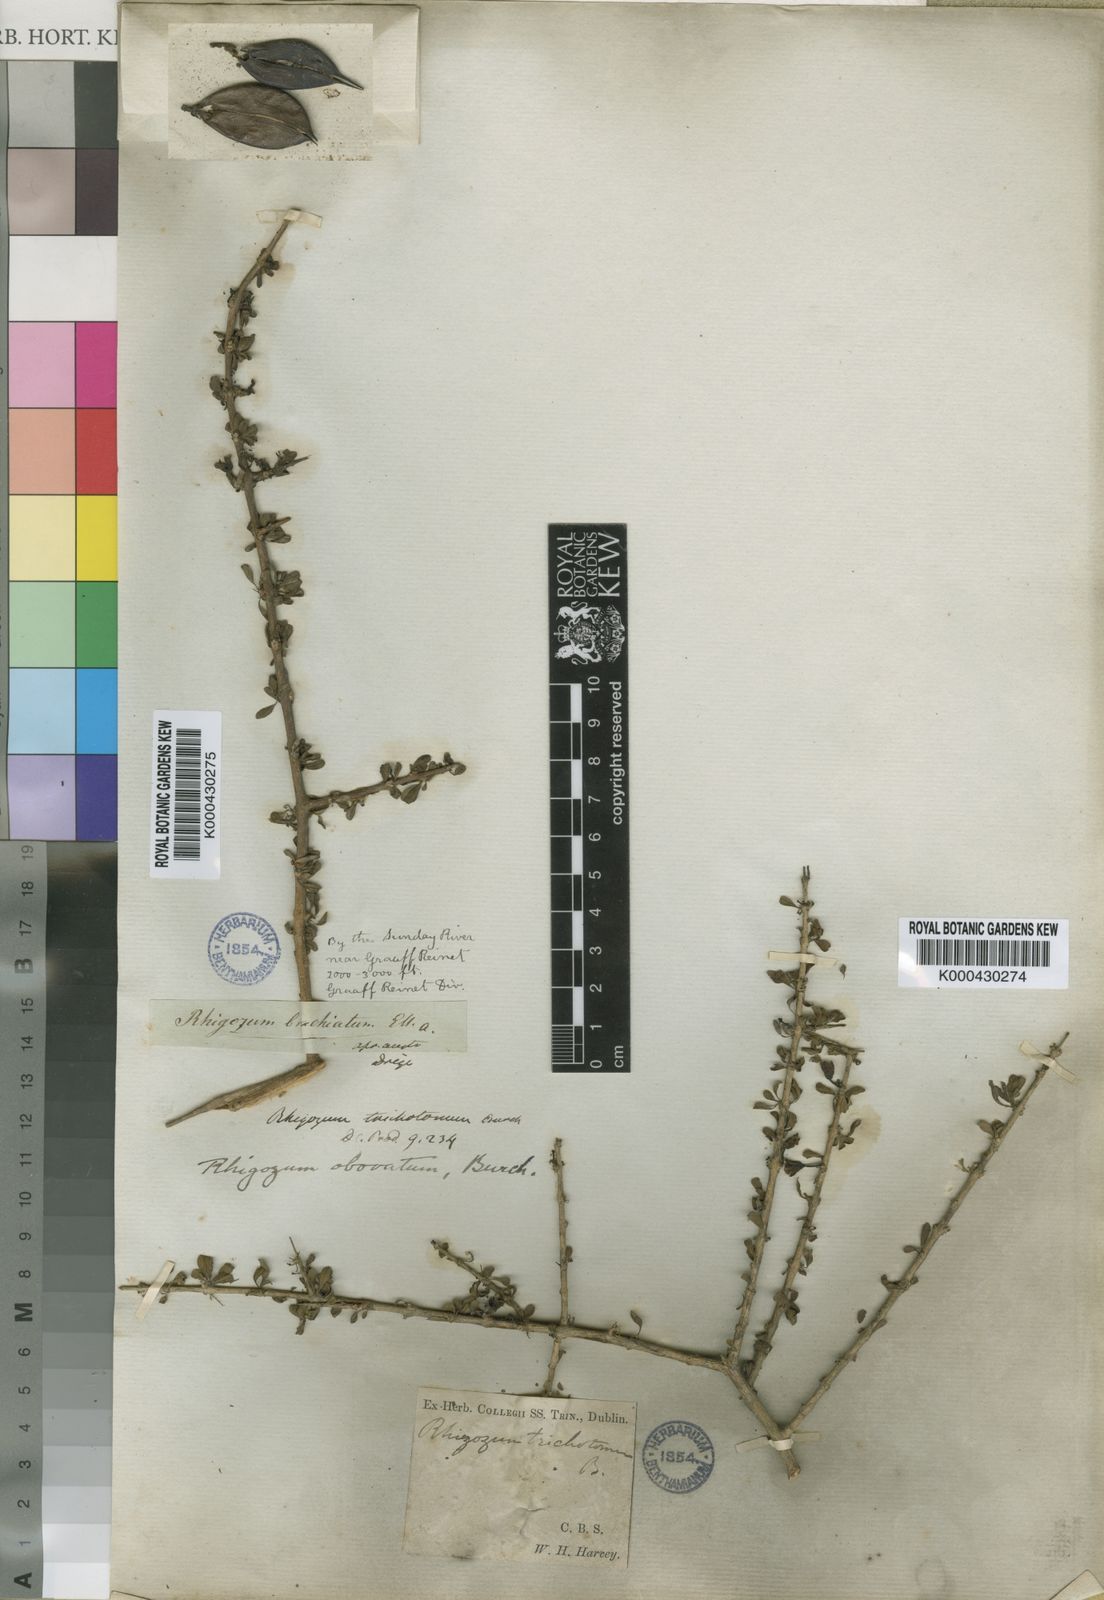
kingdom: Plantae
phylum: Tracheophyta
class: Magnoliopsida
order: Lamiales
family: Bignoniaceae
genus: Rhigozum
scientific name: Rhigozum obovatum
